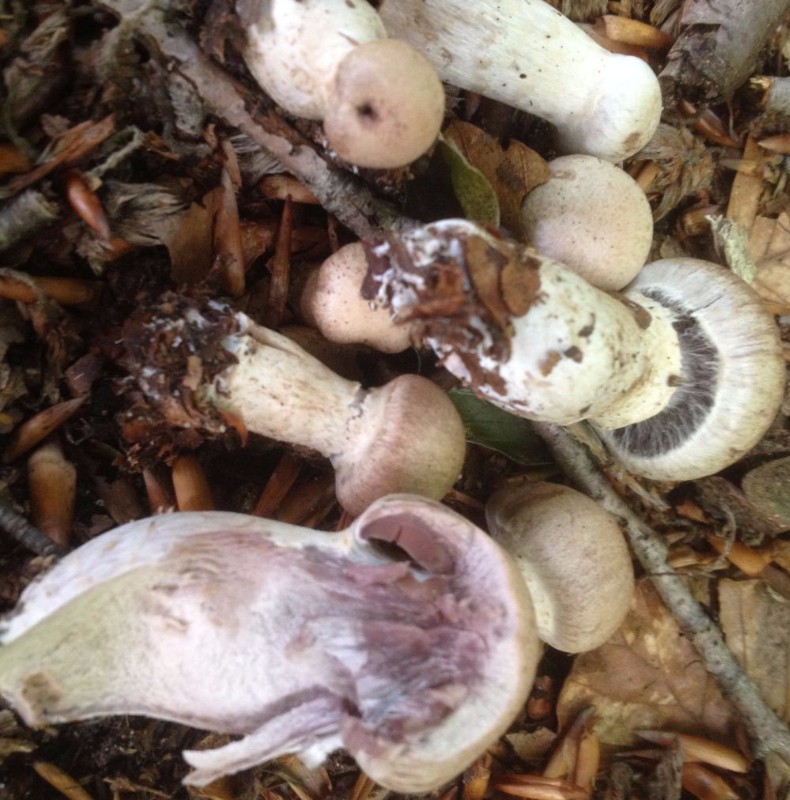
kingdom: Fungi
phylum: Basidiomycota
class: Agaricomycetes
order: Agaricales
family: Cortinariaceae
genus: Cortinarius
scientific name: Cortinarius torvus
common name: champignonagtig slørhat
